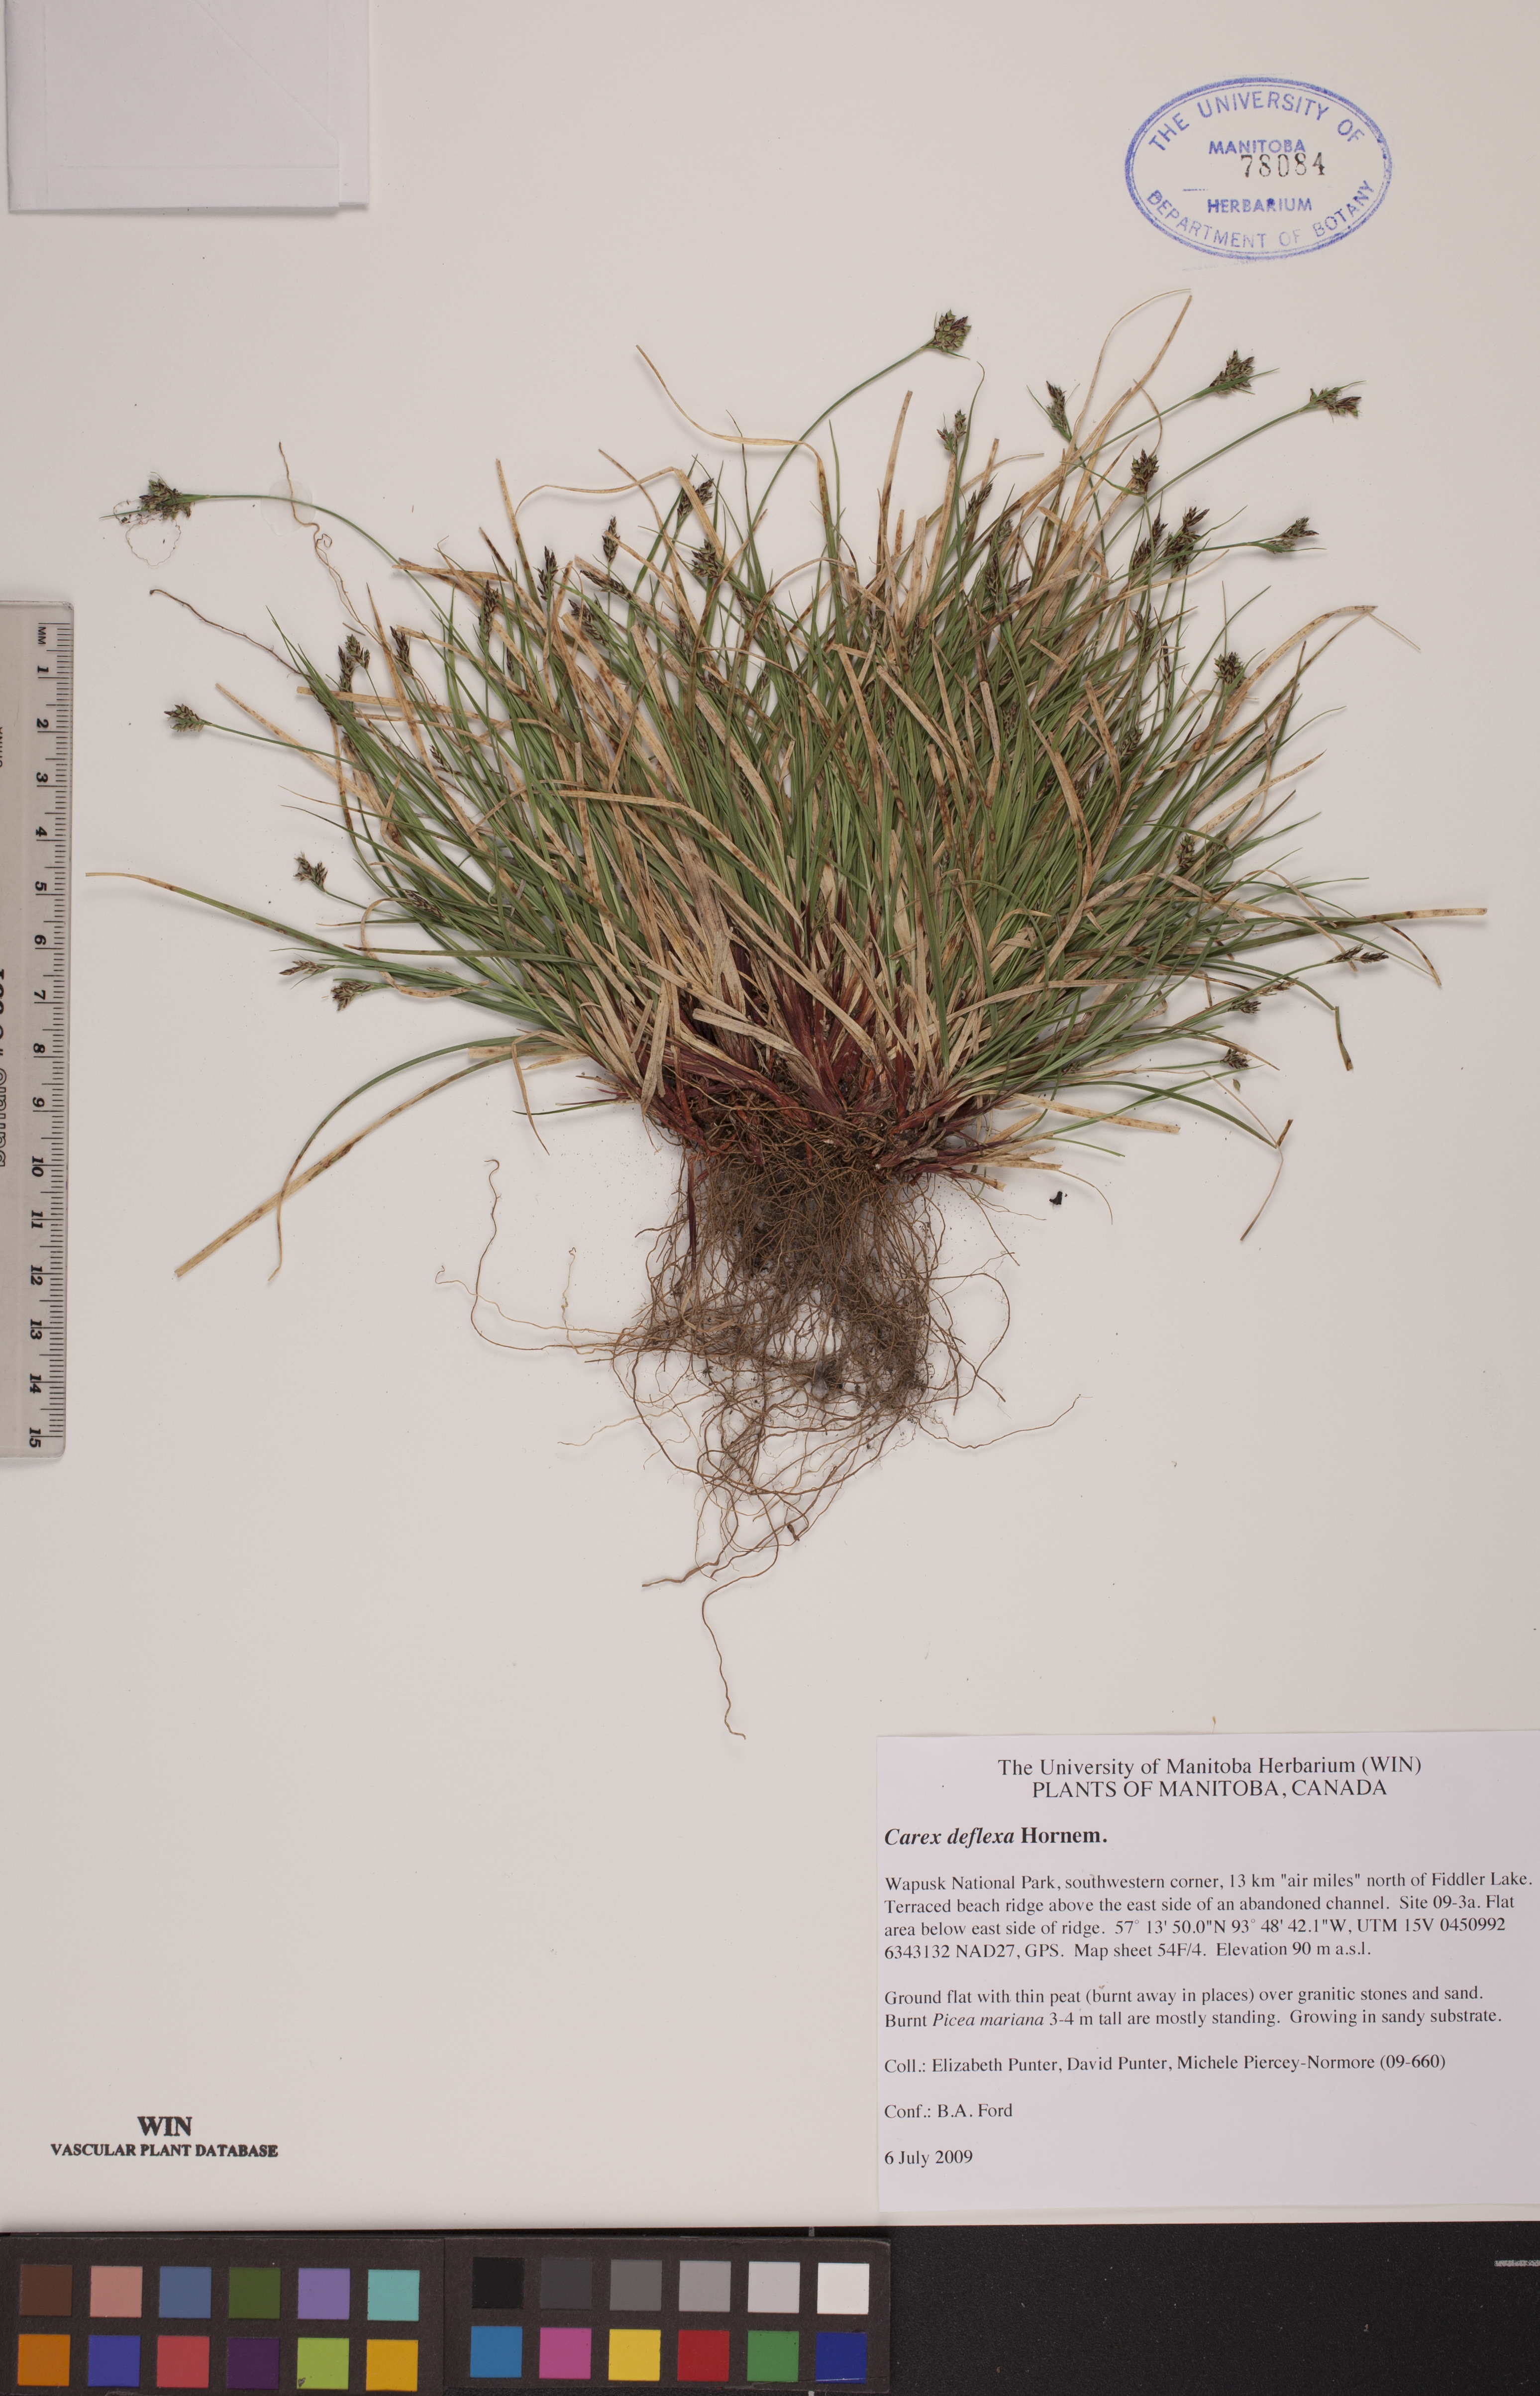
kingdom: Plantae
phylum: Tracheophyta
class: Liliopsida
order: Poales
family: Cyperaceae
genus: Carex
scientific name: Carex deflexa
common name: Bent northern sedge
